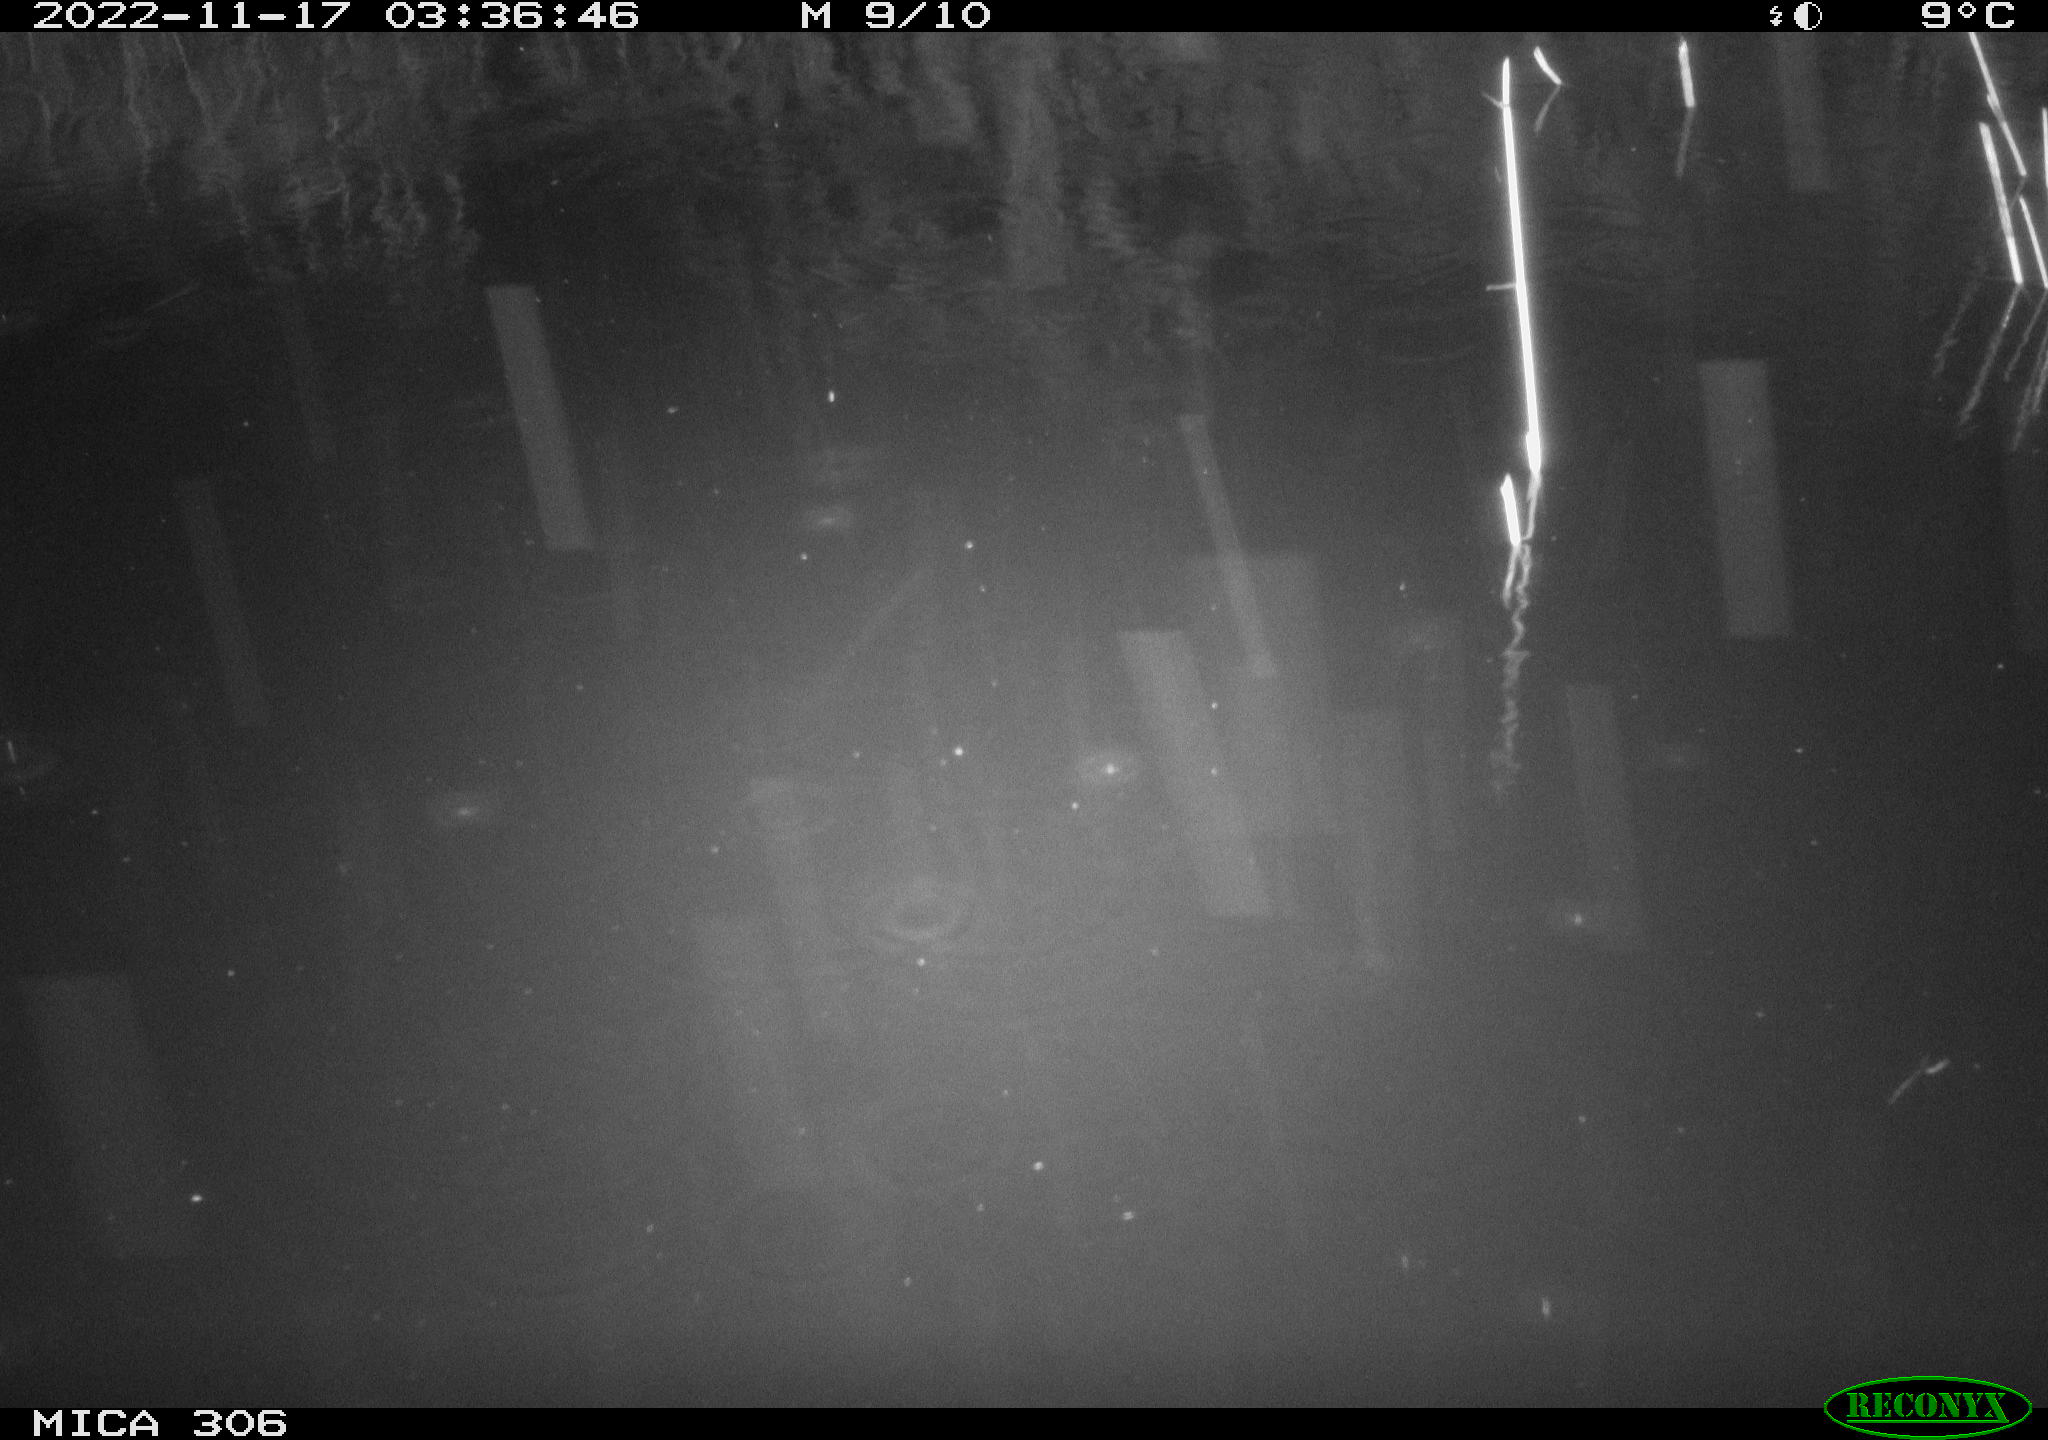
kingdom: Animalia
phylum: Chordata
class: Mammalia
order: Rodentia
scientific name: Rodentia
